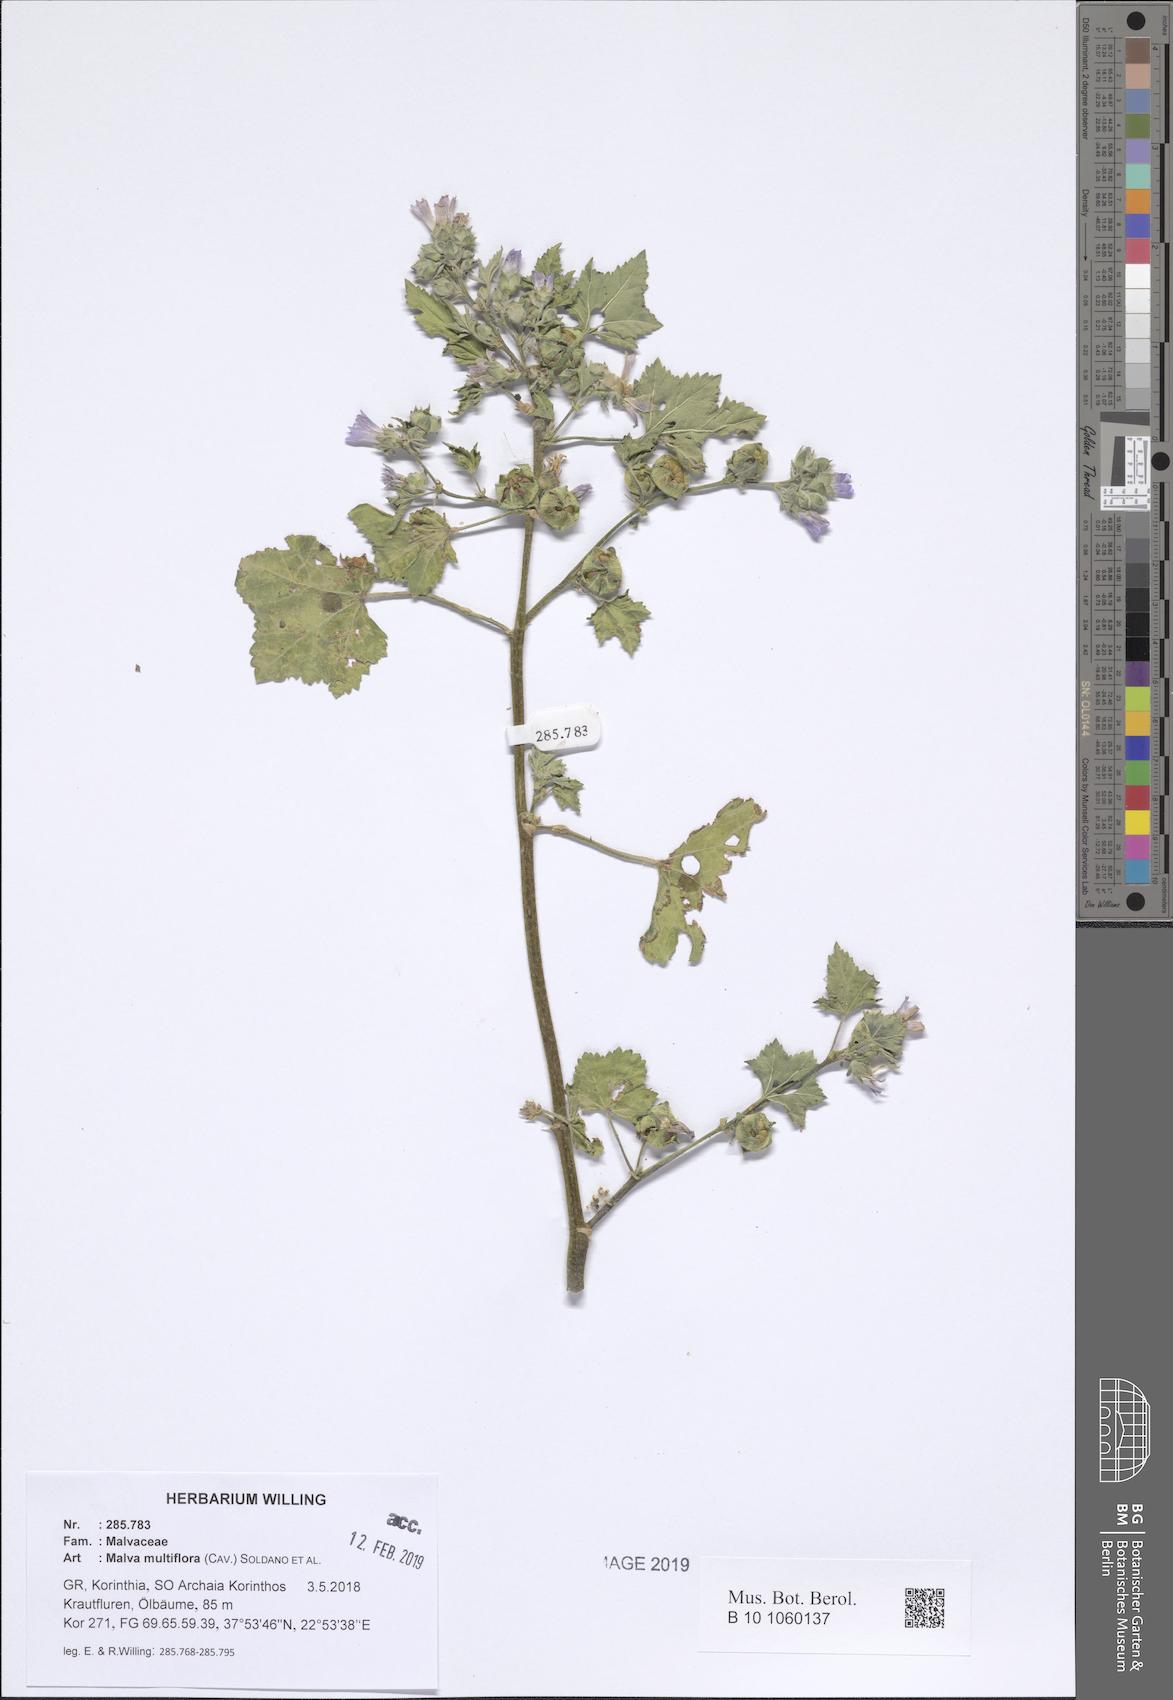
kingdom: Plantae
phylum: Tracheophyta
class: Magnoliopsida
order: Malvales
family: Malvaceae
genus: Malva
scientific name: Malva multiflora
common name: Cheeseweed
